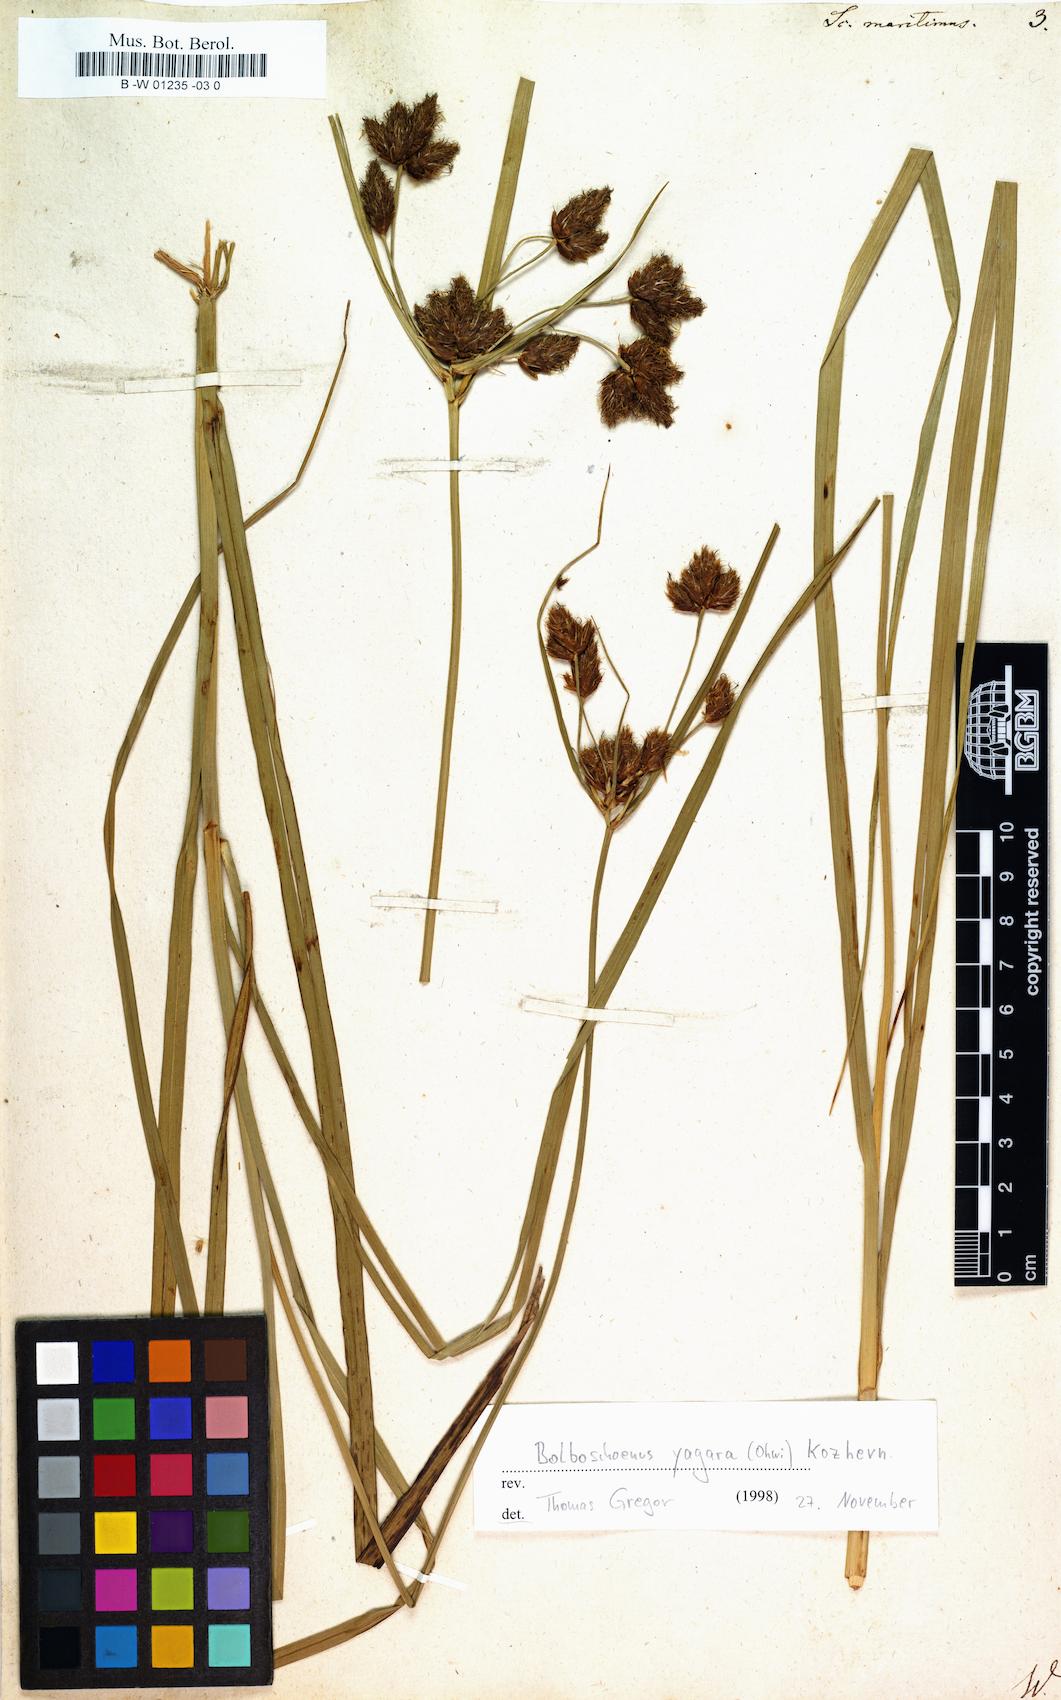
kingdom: Plantae
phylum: Tracheophyta
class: Liliopsida
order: Poales
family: Cyperaceae
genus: Scirpus
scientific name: Scirpus
